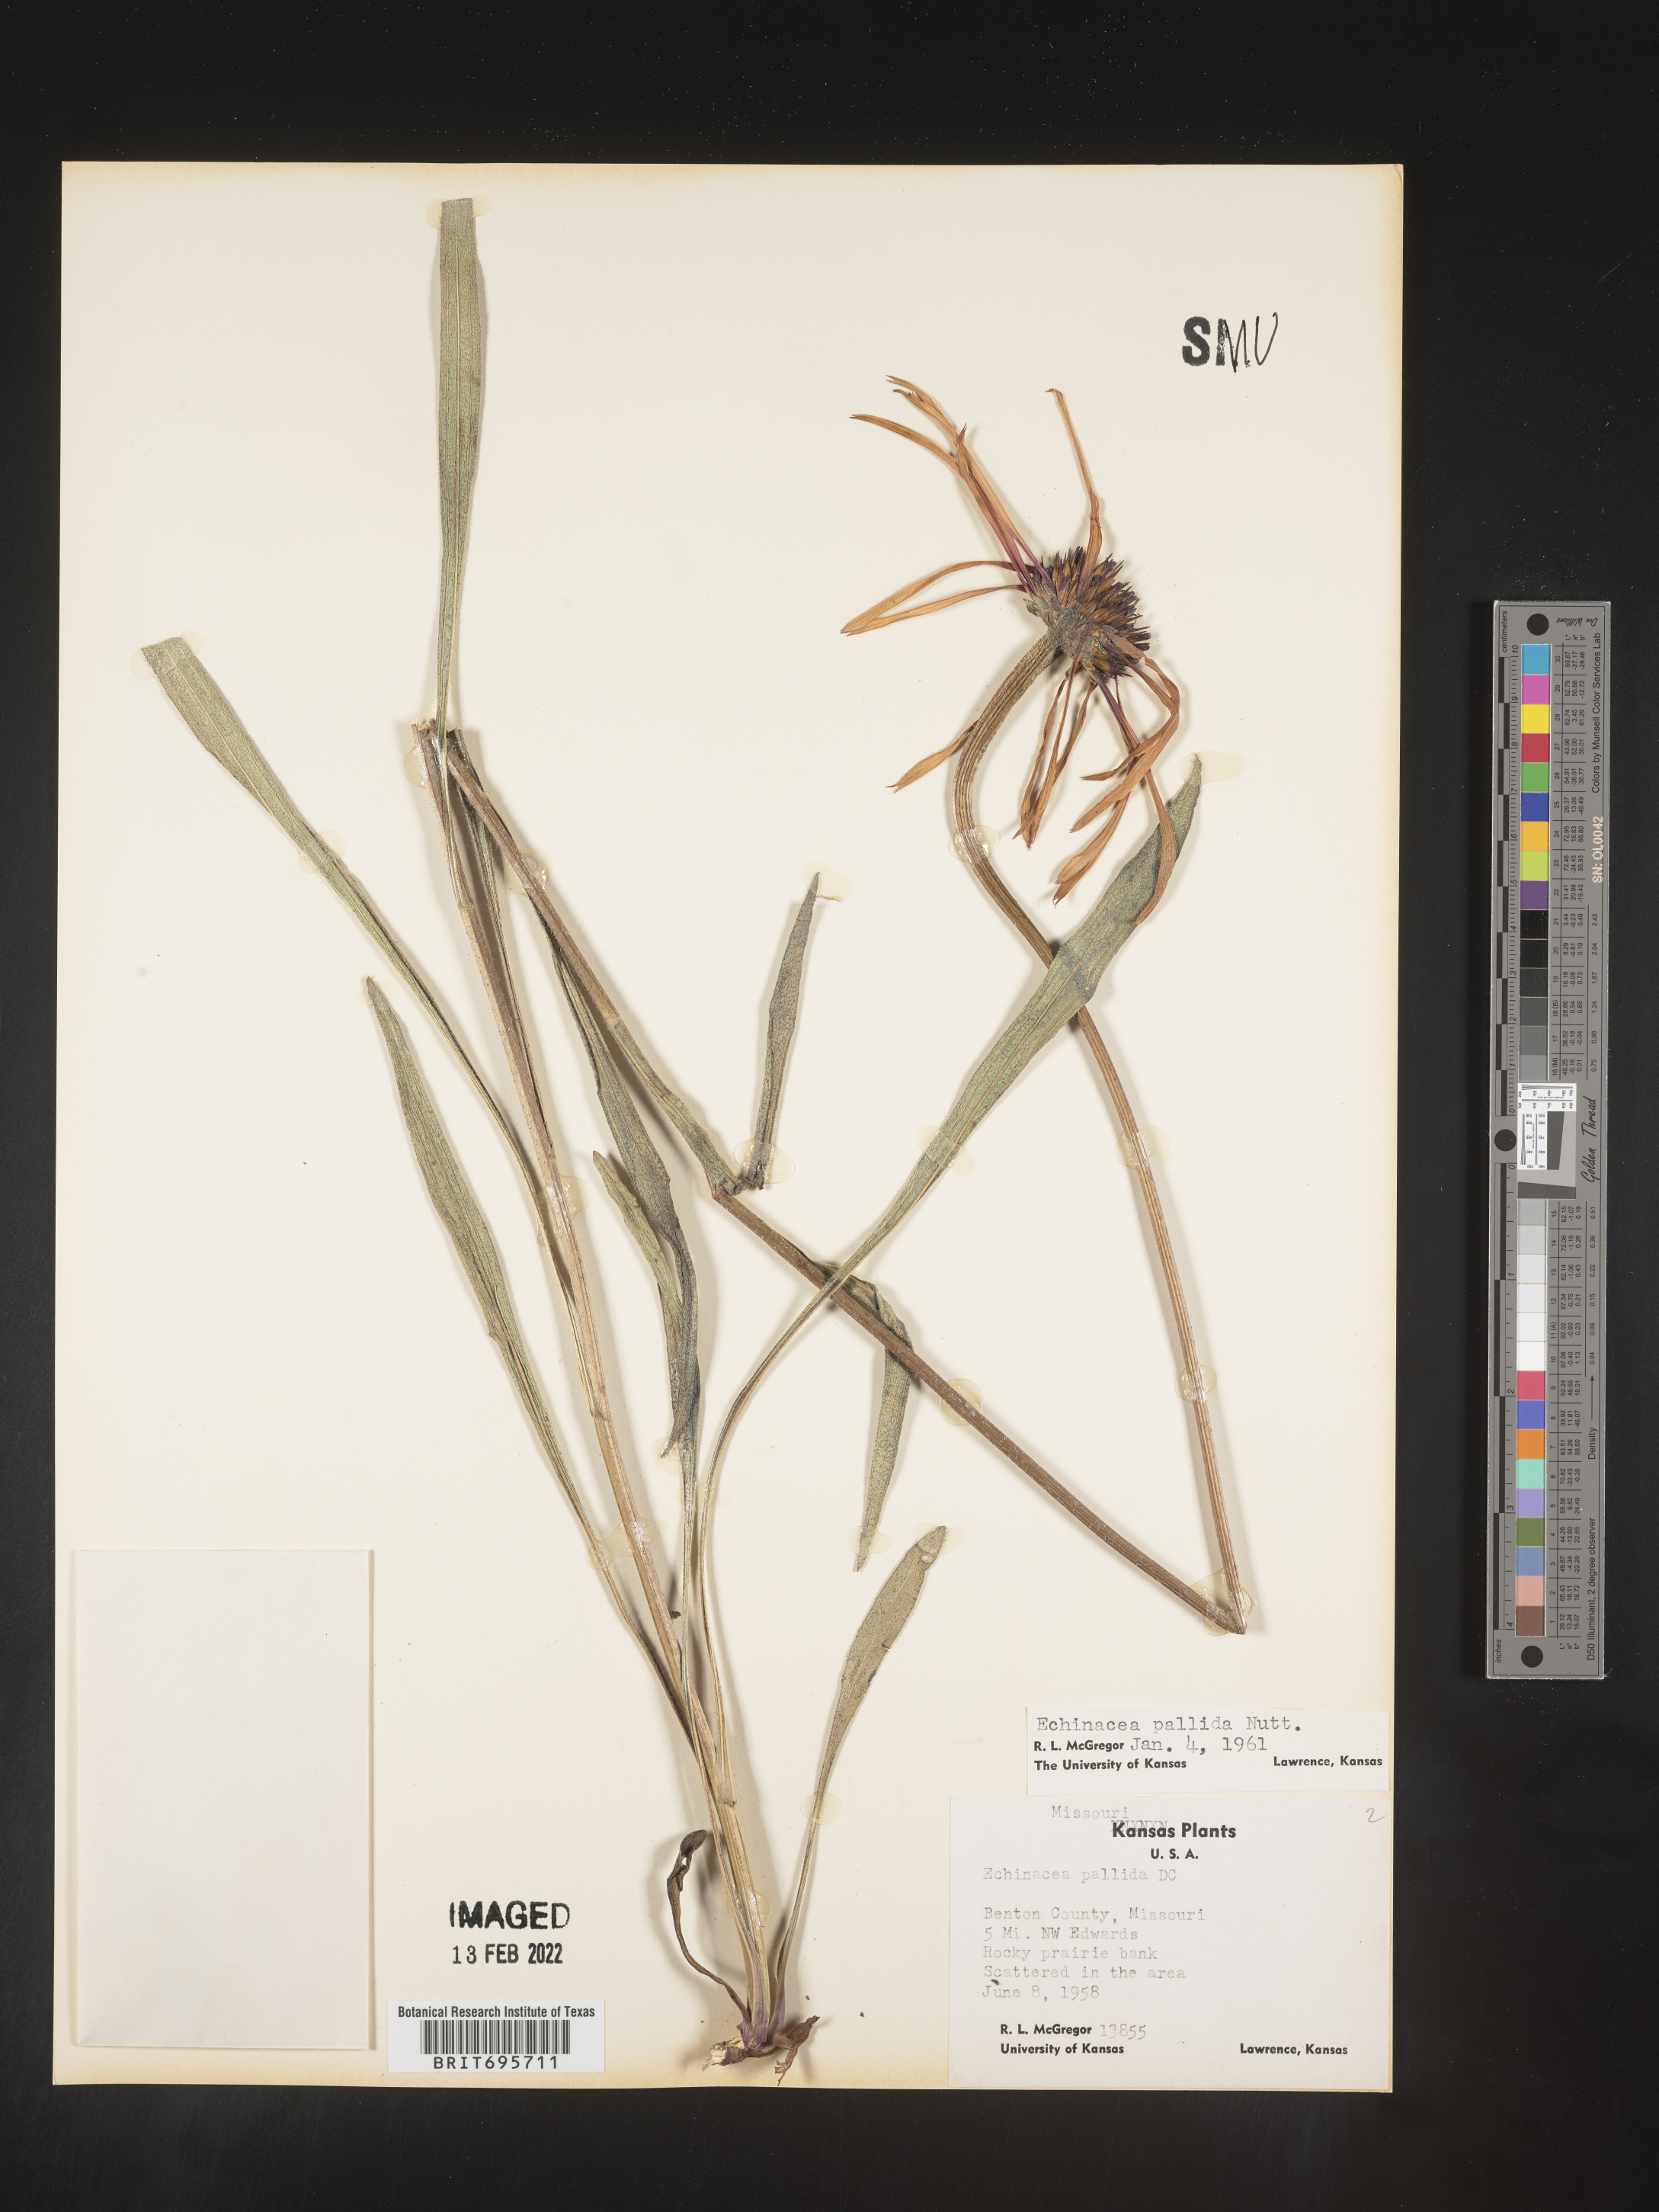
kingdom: Plantae
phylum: Tracheophyta
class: Magnoliopsida
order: Asterales
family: Asteraceae
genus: Echinacea
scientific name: Echinacea pallida
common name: Pale echinacea
